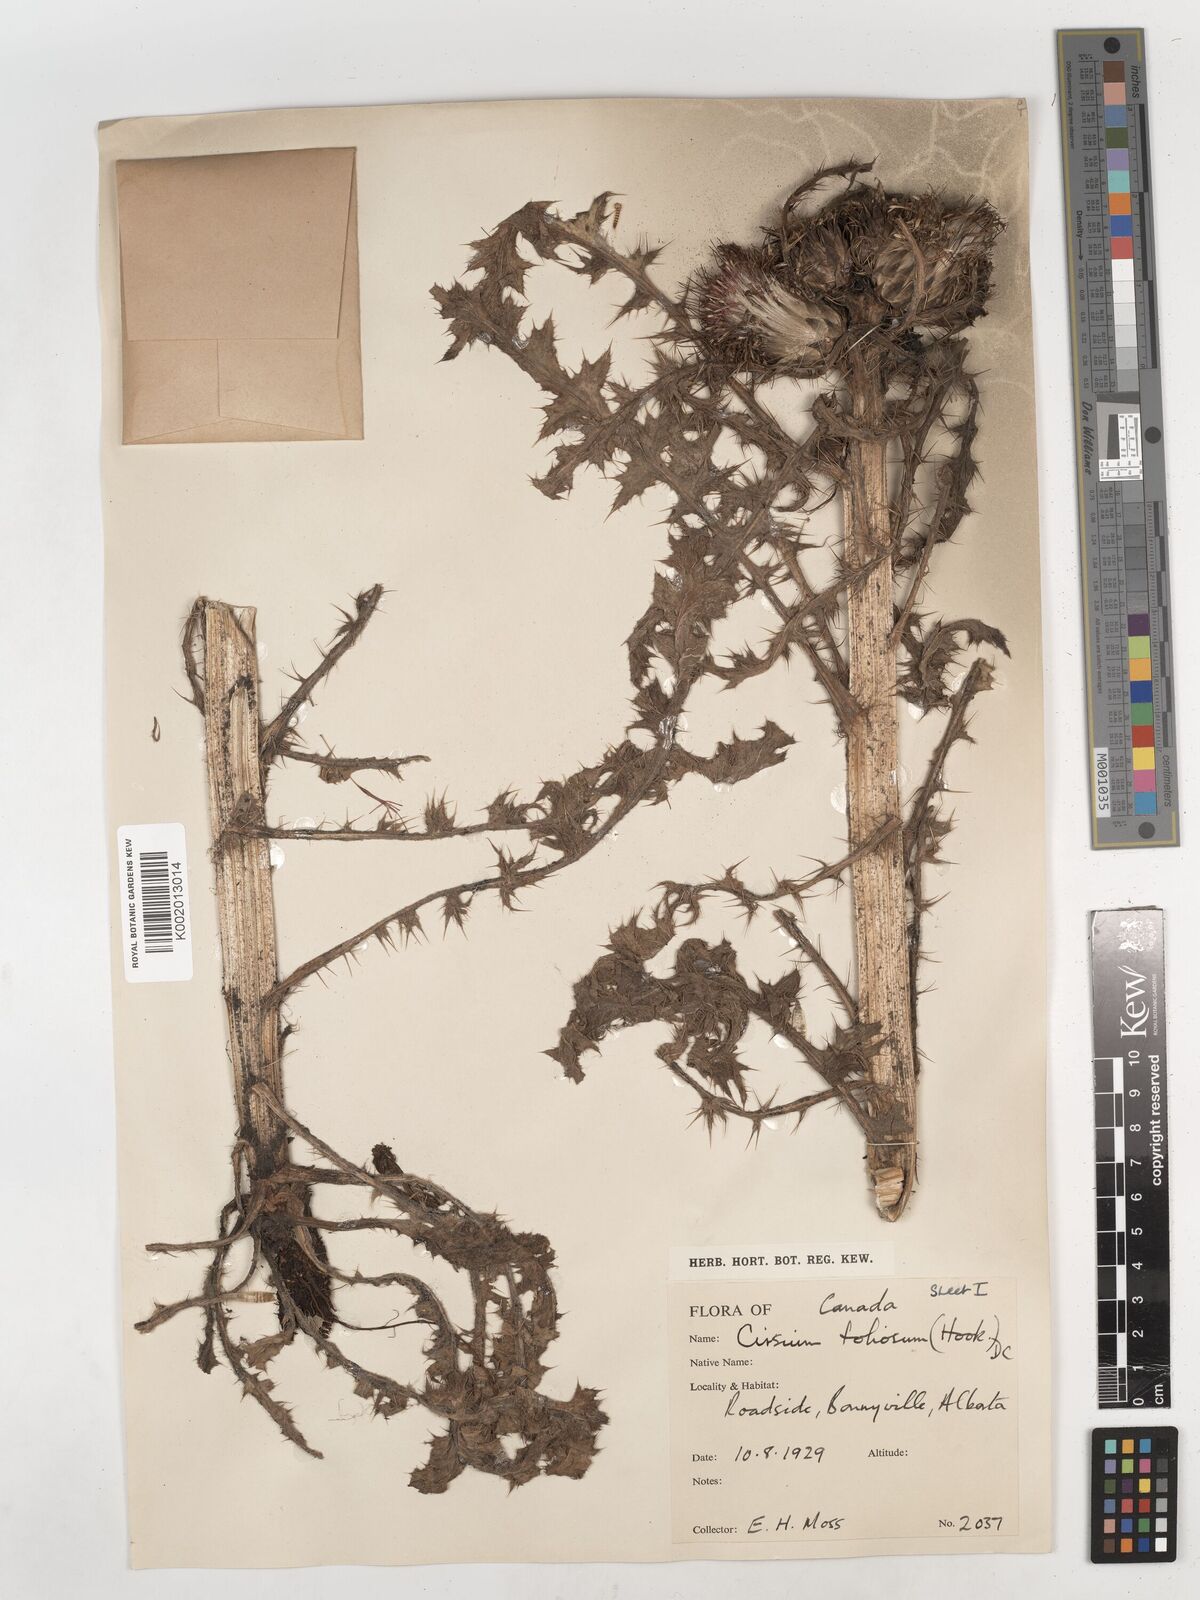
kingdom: Plantae
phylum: Tracheophyta
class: Magnoliopsida
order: Asterales
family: Asteraceae
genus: Cirsium
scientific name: Cirsium foliosum
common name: Elk thistle
